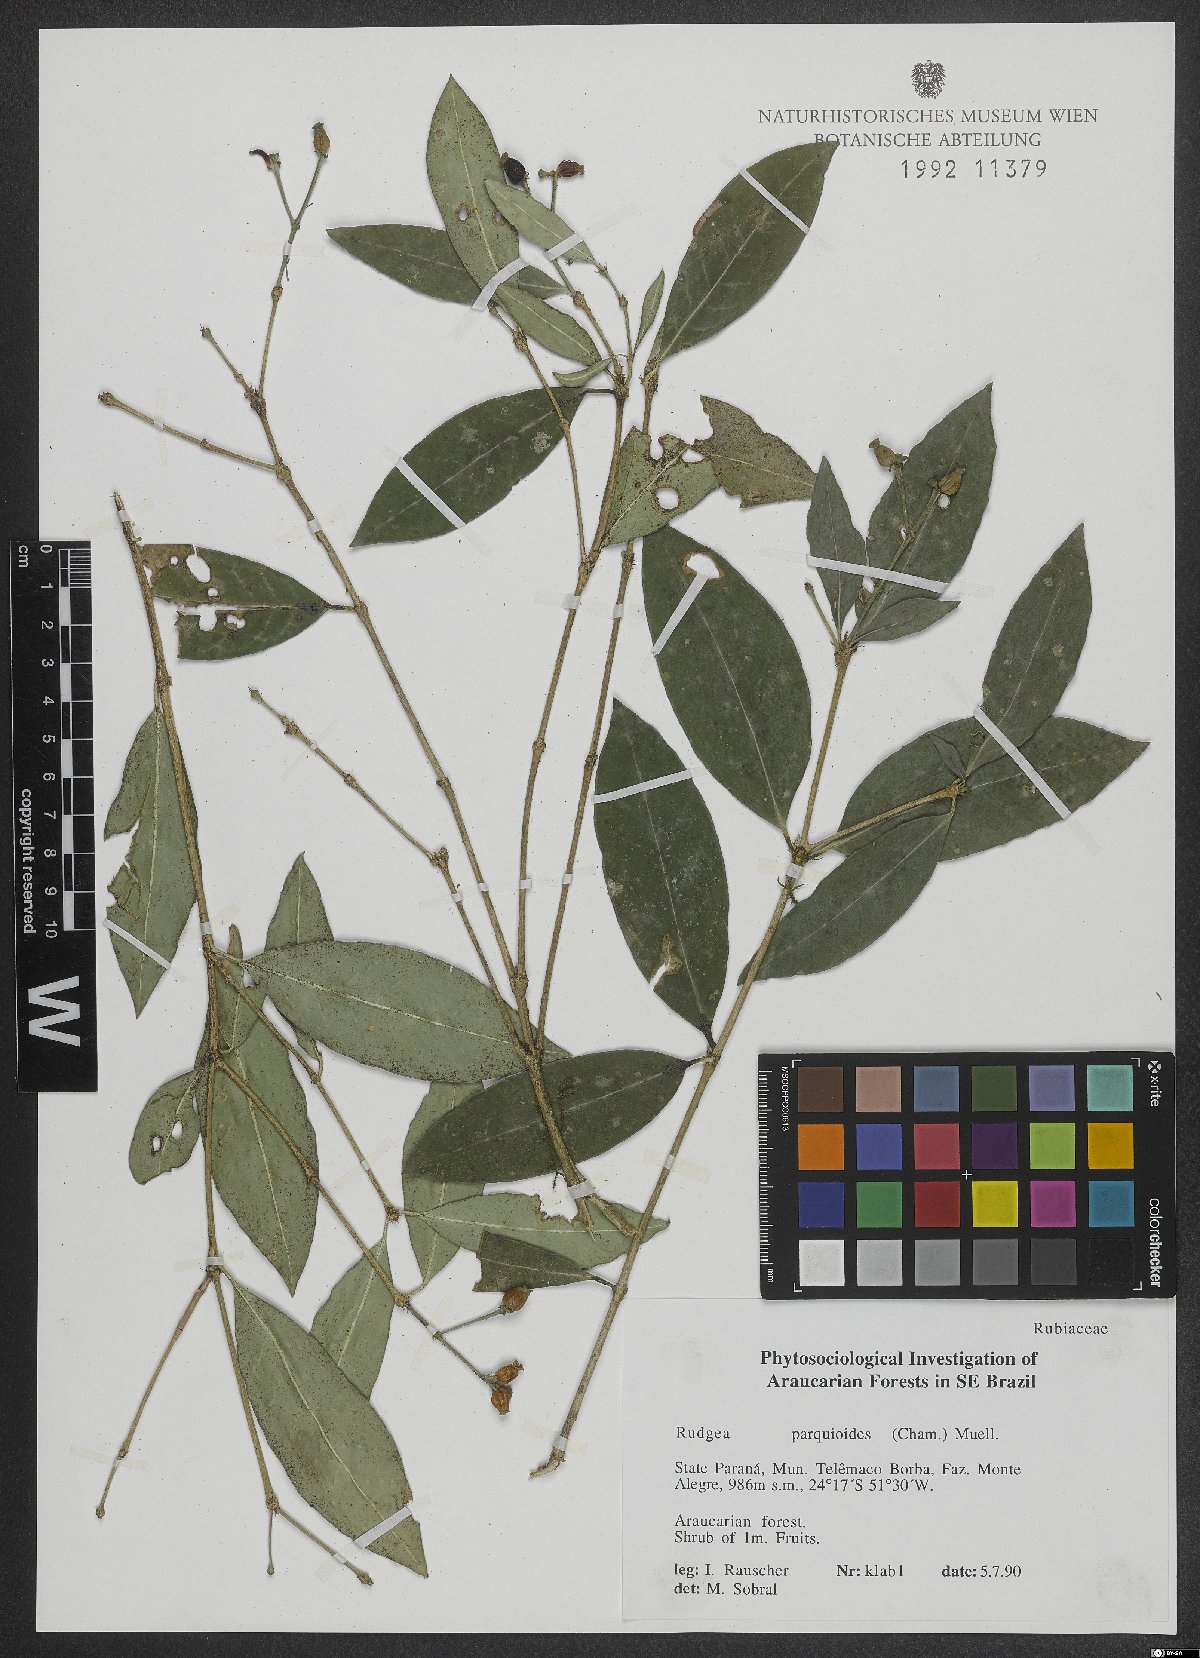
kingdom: Plantae
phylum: Tracheophyta
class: Magnoliopsida
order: Gentianales
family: Rubiaceae
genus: Rudgea
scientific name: Rudgea parquioides
